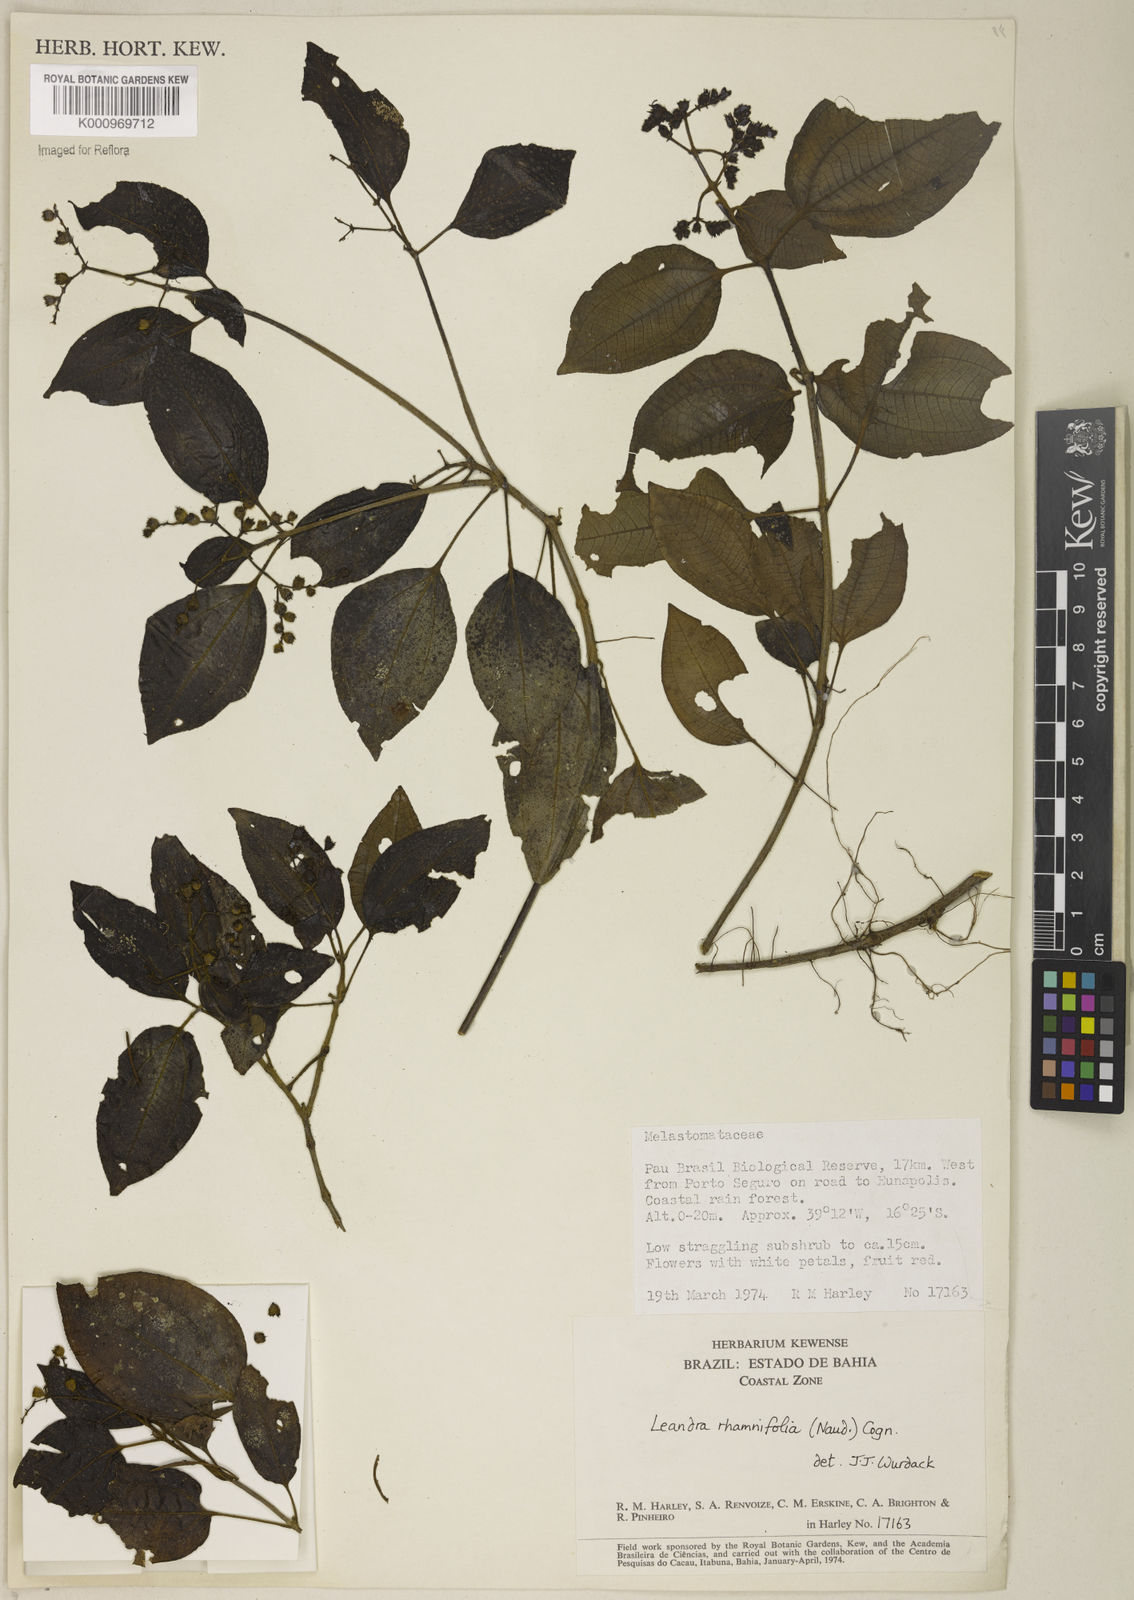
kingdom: Plantae
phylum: Tracheophyta
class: Magnoliopsida
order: Myrtales
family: Melastomataceae
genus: Miconia
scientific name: Miconia rhamnifolia
